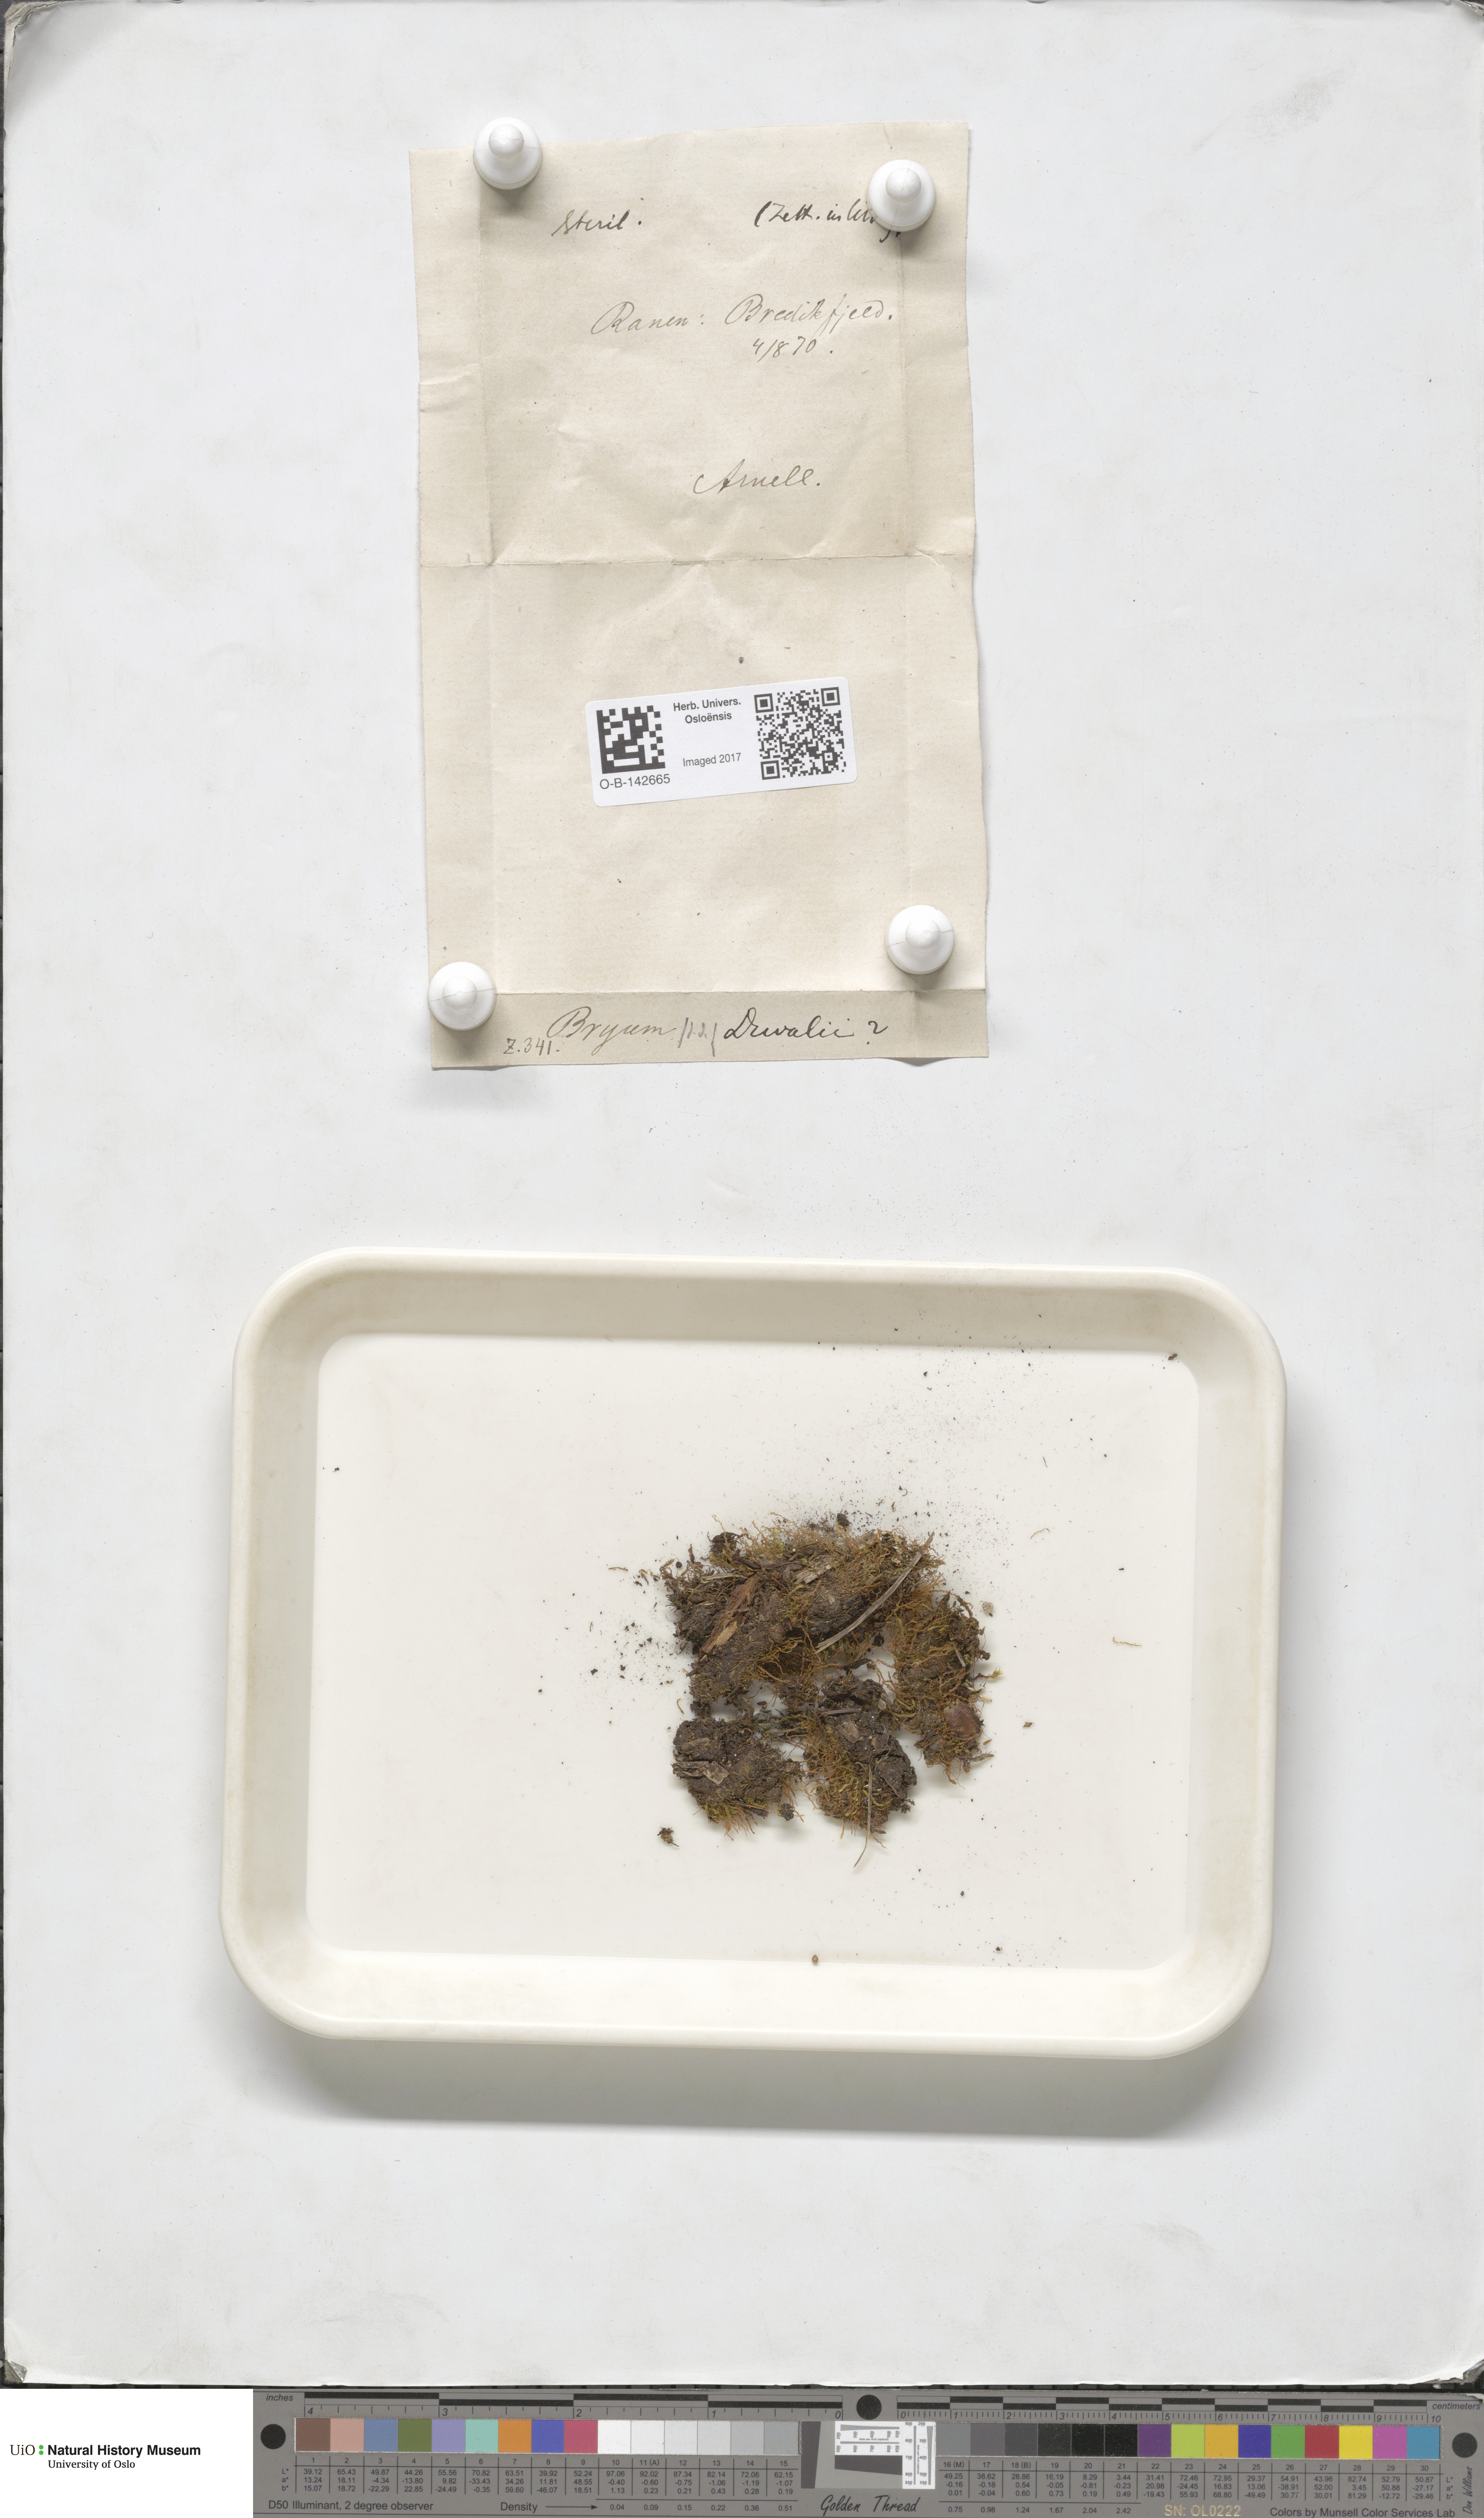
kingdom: Plantae
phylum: Bryophyta
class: Bryopsida
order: Bryales
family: Bryaceae
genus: Ptychostomum
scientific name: Ptychostomum weigelii
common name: Weigel's bryum moss
